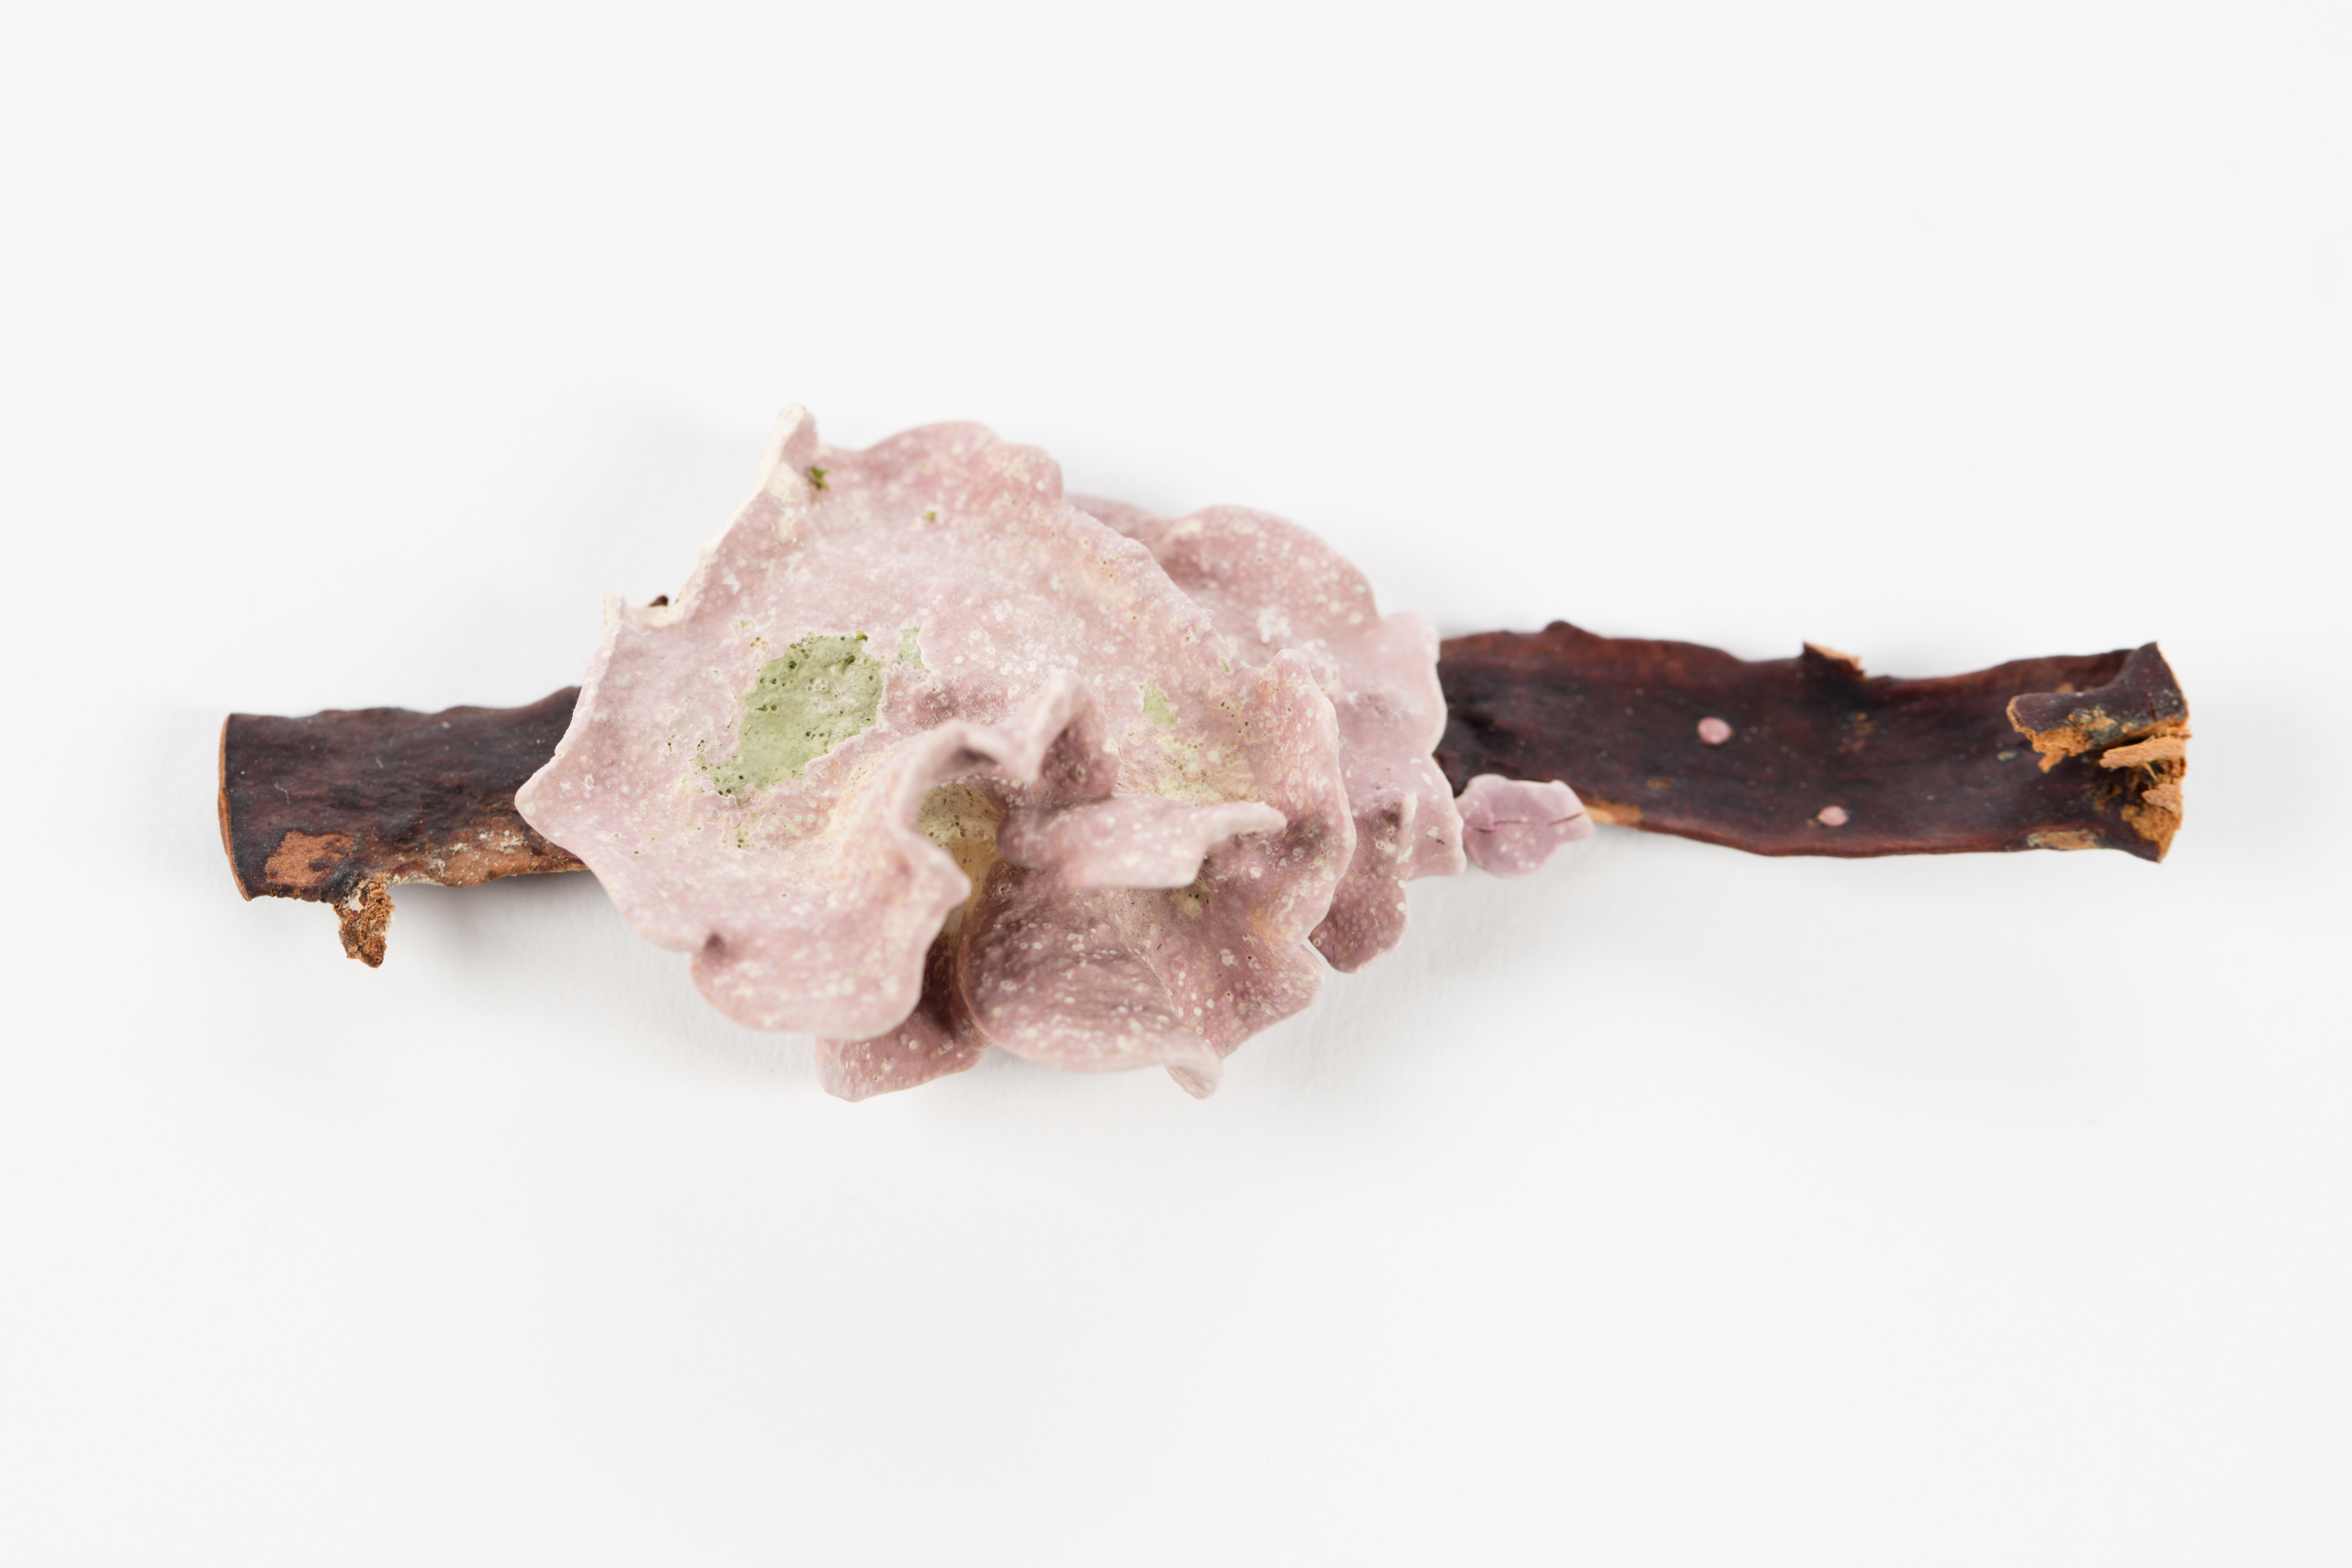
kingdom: Plantae
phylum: Rhodophyta
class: Florideophyceae
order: Corallinales
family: Lithophyllaceae
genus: Lithophyllum
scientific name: Lithophyllum carpophylli
